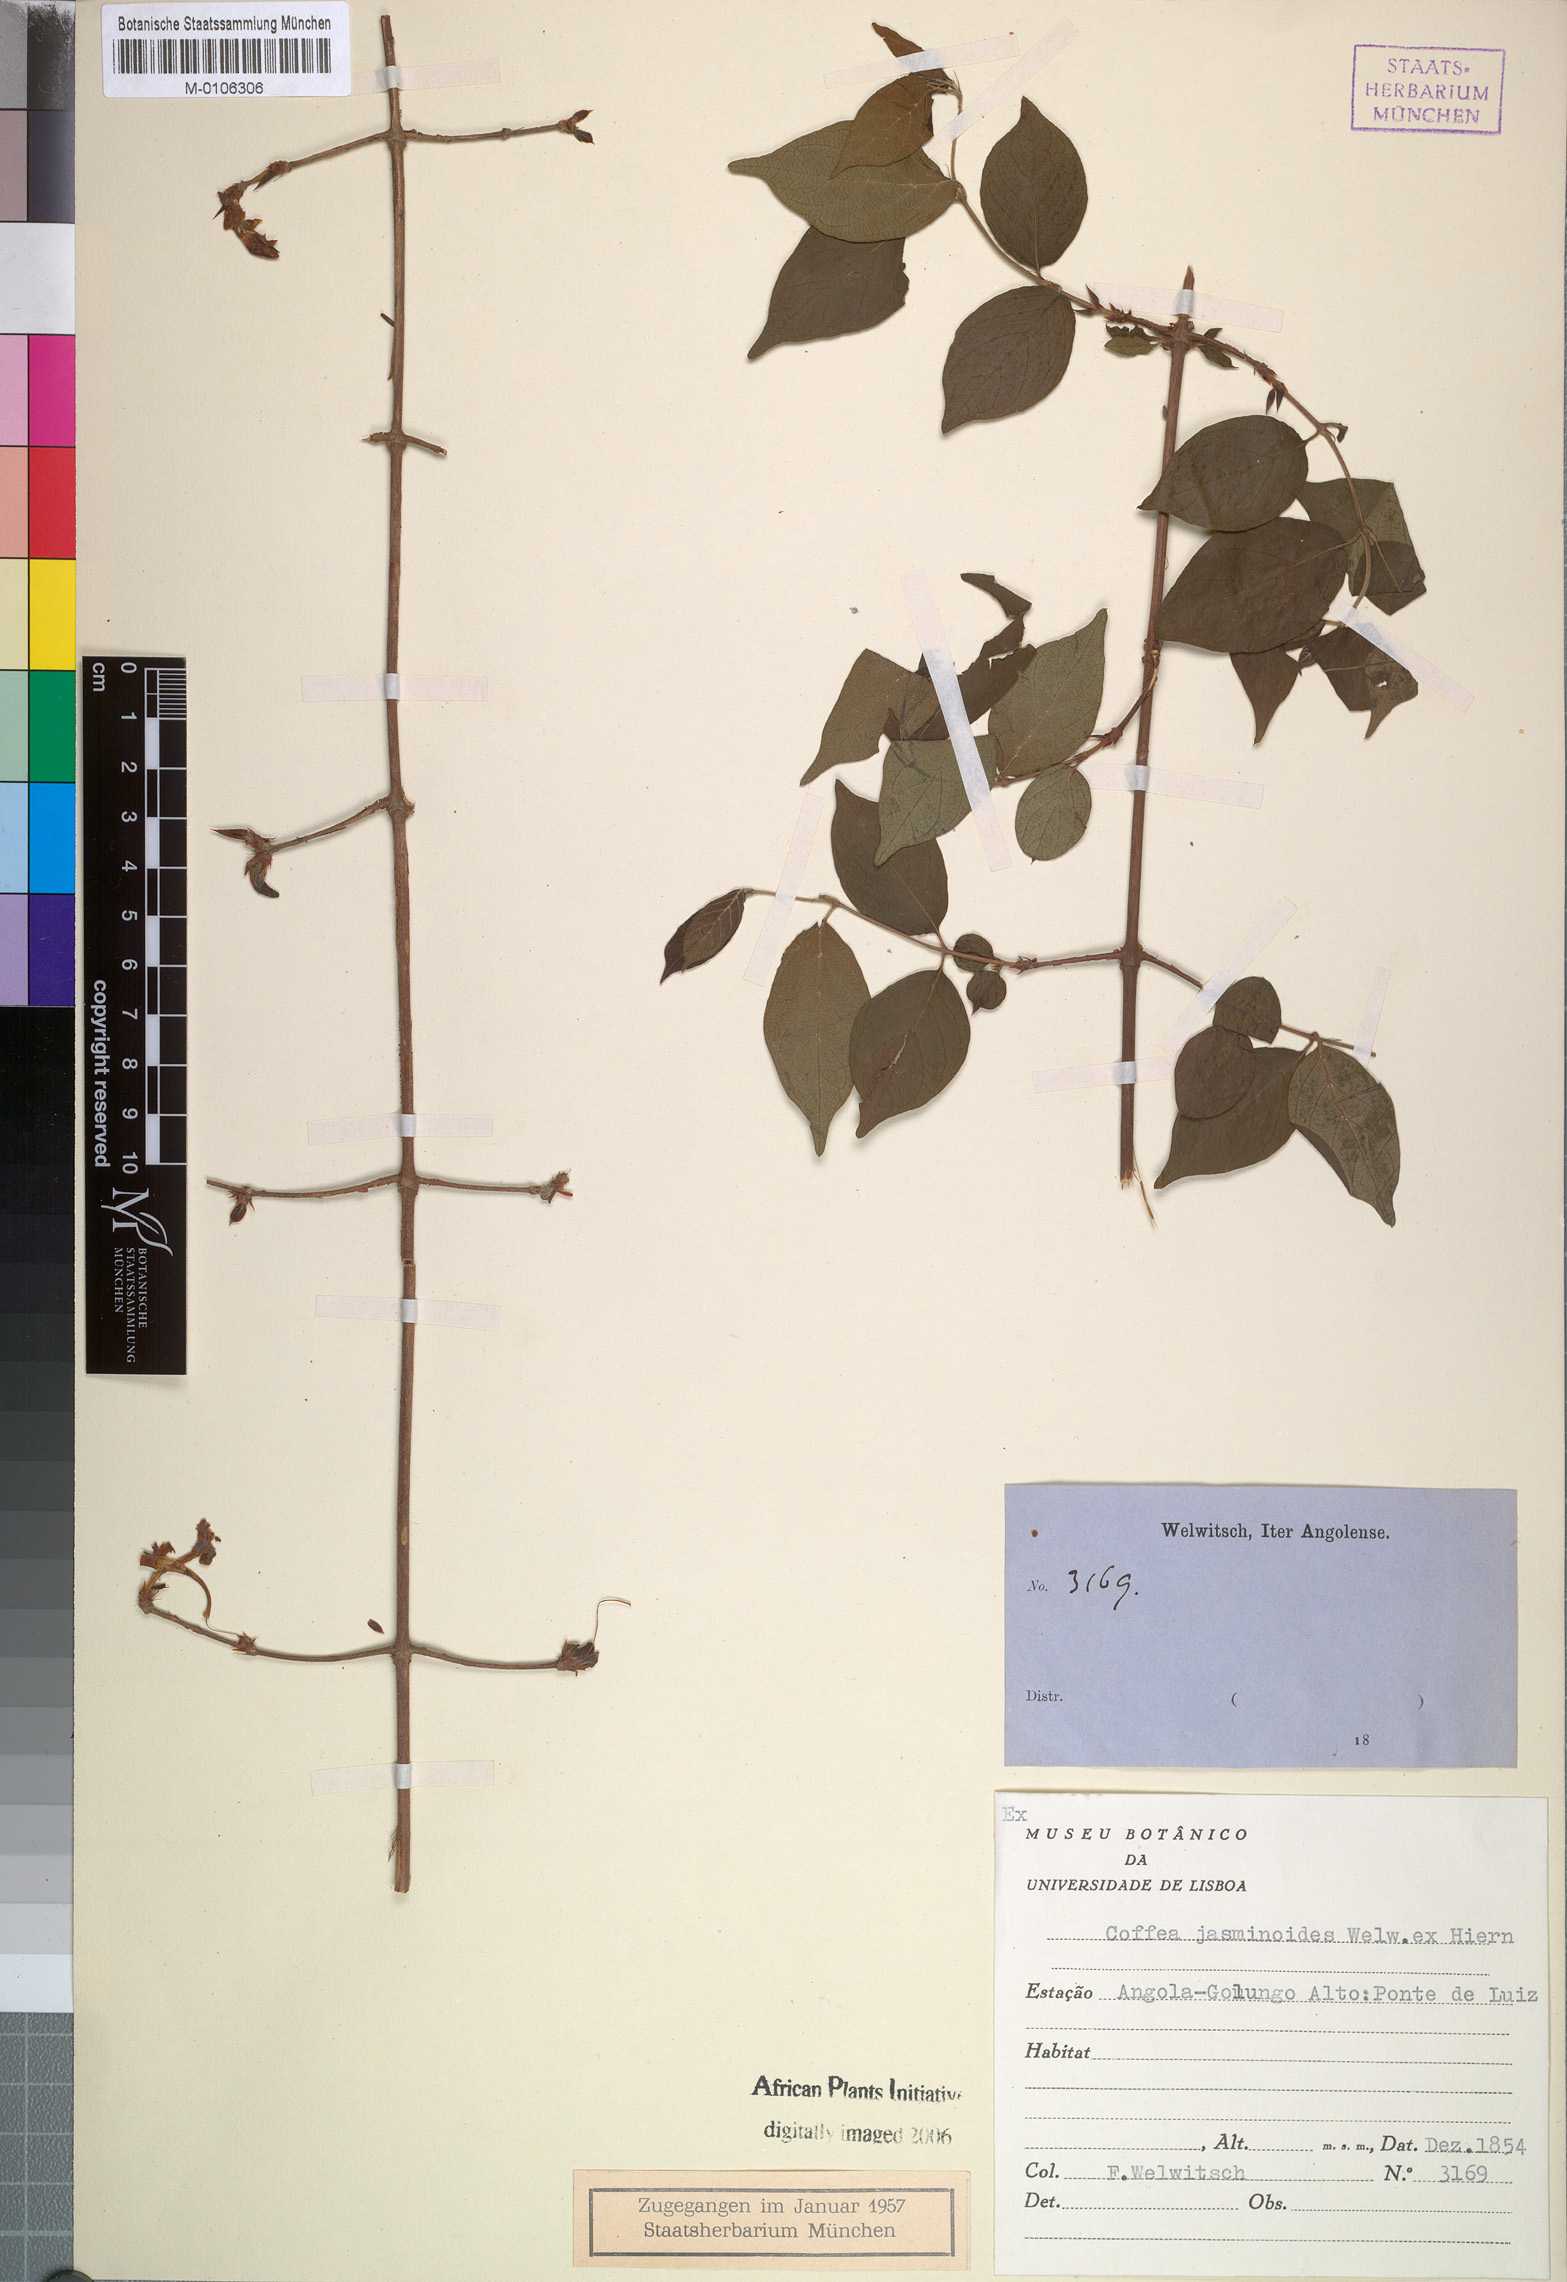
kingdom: Plantae
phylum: Tracheophyta
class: Magnoliopsida
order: Gentianales
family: Rubiaceae
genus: Argocoffeopsis
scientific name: Argocoffeopsis eketensis
